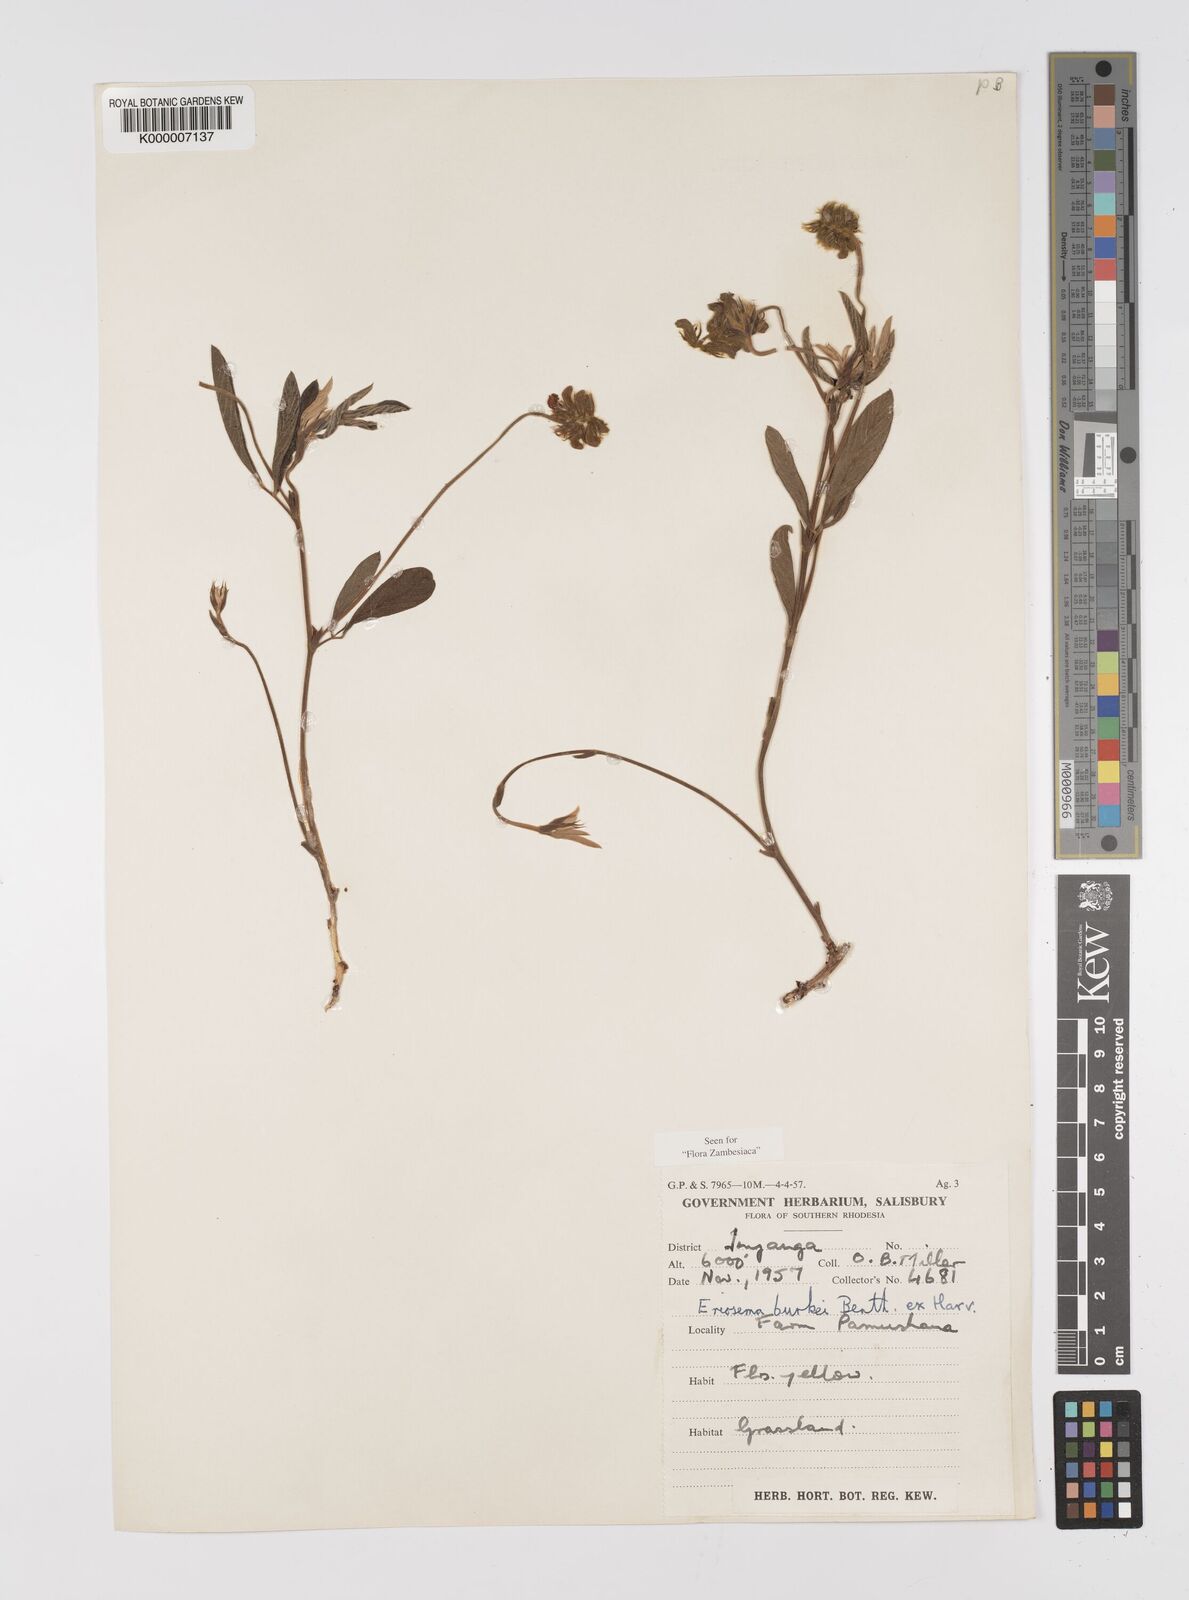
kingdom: Plantae
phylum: Tracheophyta
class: Magnoliopsida
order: Fabales
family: Fabaceae
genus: Eriosema
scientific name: Eriosema burkei
